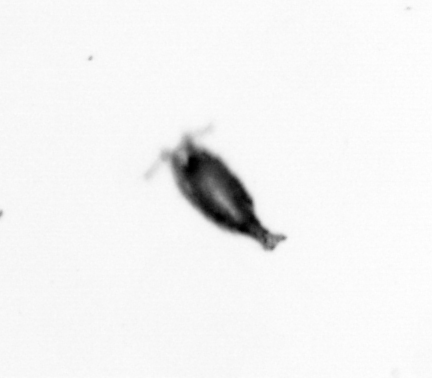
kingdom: Animalia
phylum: Arthropoda
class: Copepoda
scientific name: Copepoda
